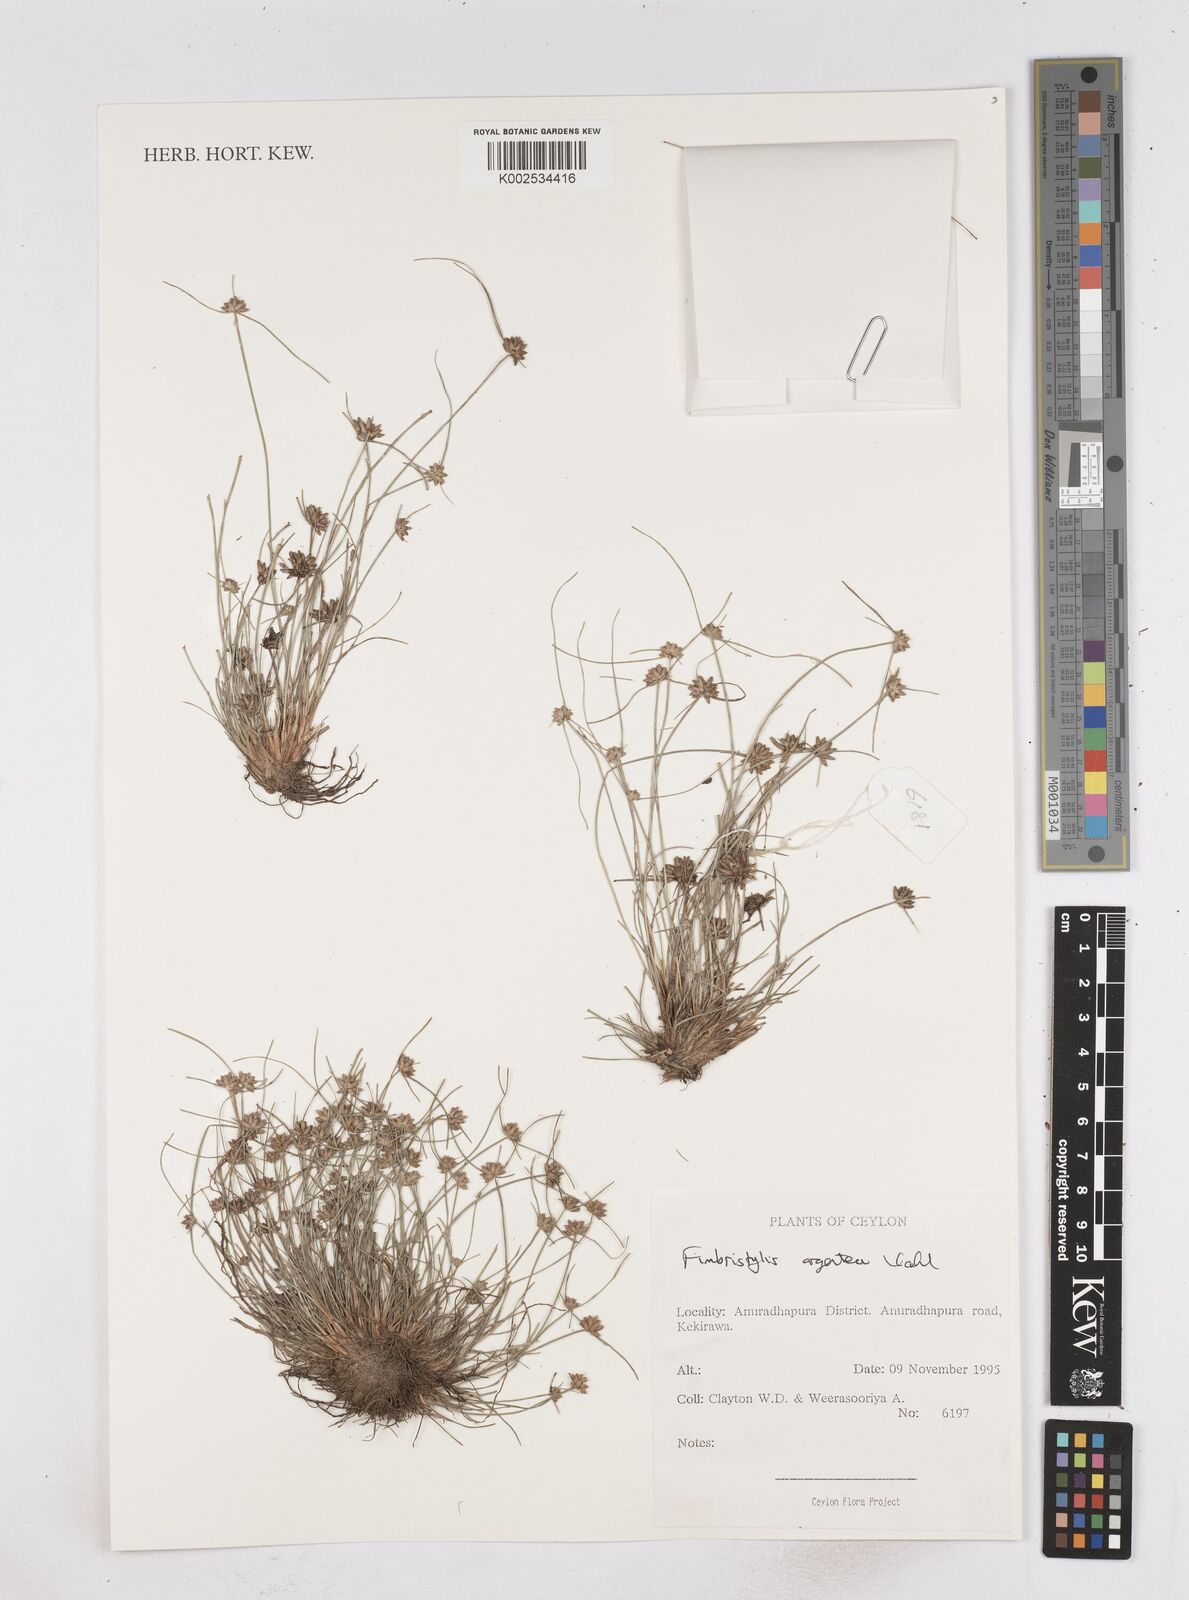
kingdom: Plantae
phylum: Tracheophyta
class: Liliopsida
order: Poales
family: Cyperaceae
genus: Fimbristylis
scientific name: Fimbristylis argentea
